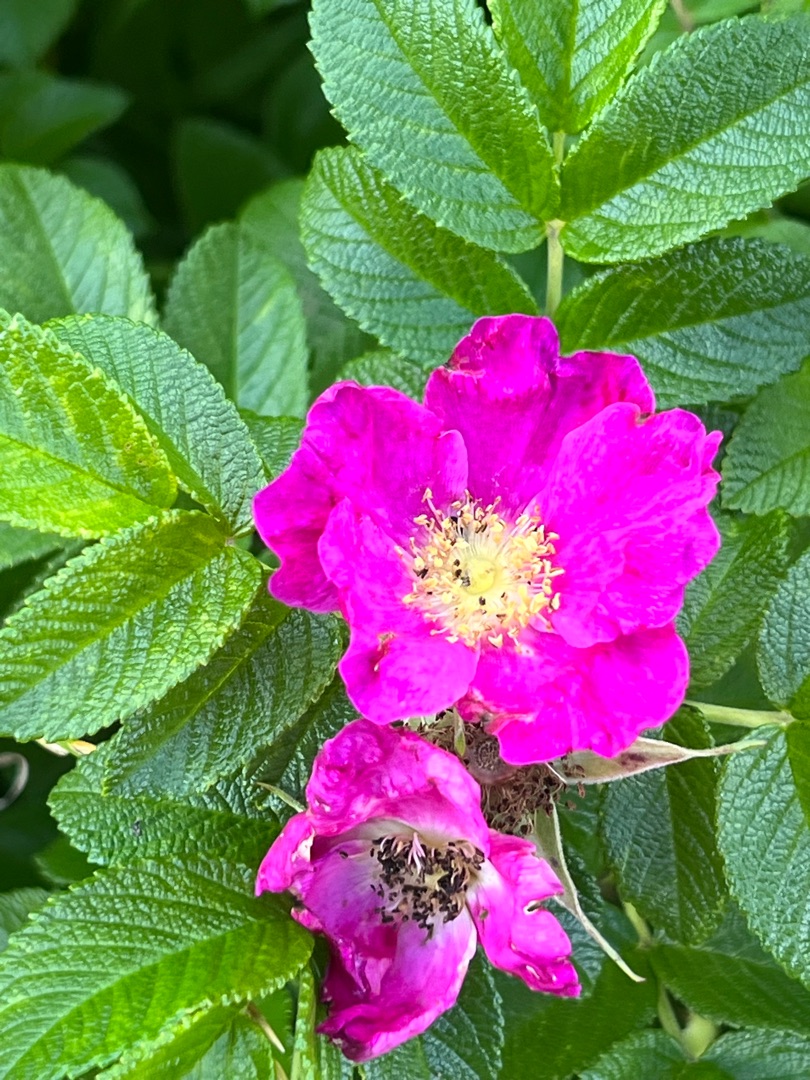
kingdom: Plantae
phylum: Tracheophyta
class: Magnoliopsida
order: Rosales
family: Rosaceae
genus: Rosa
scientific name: Rosa rugosa
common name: Rynket rose
